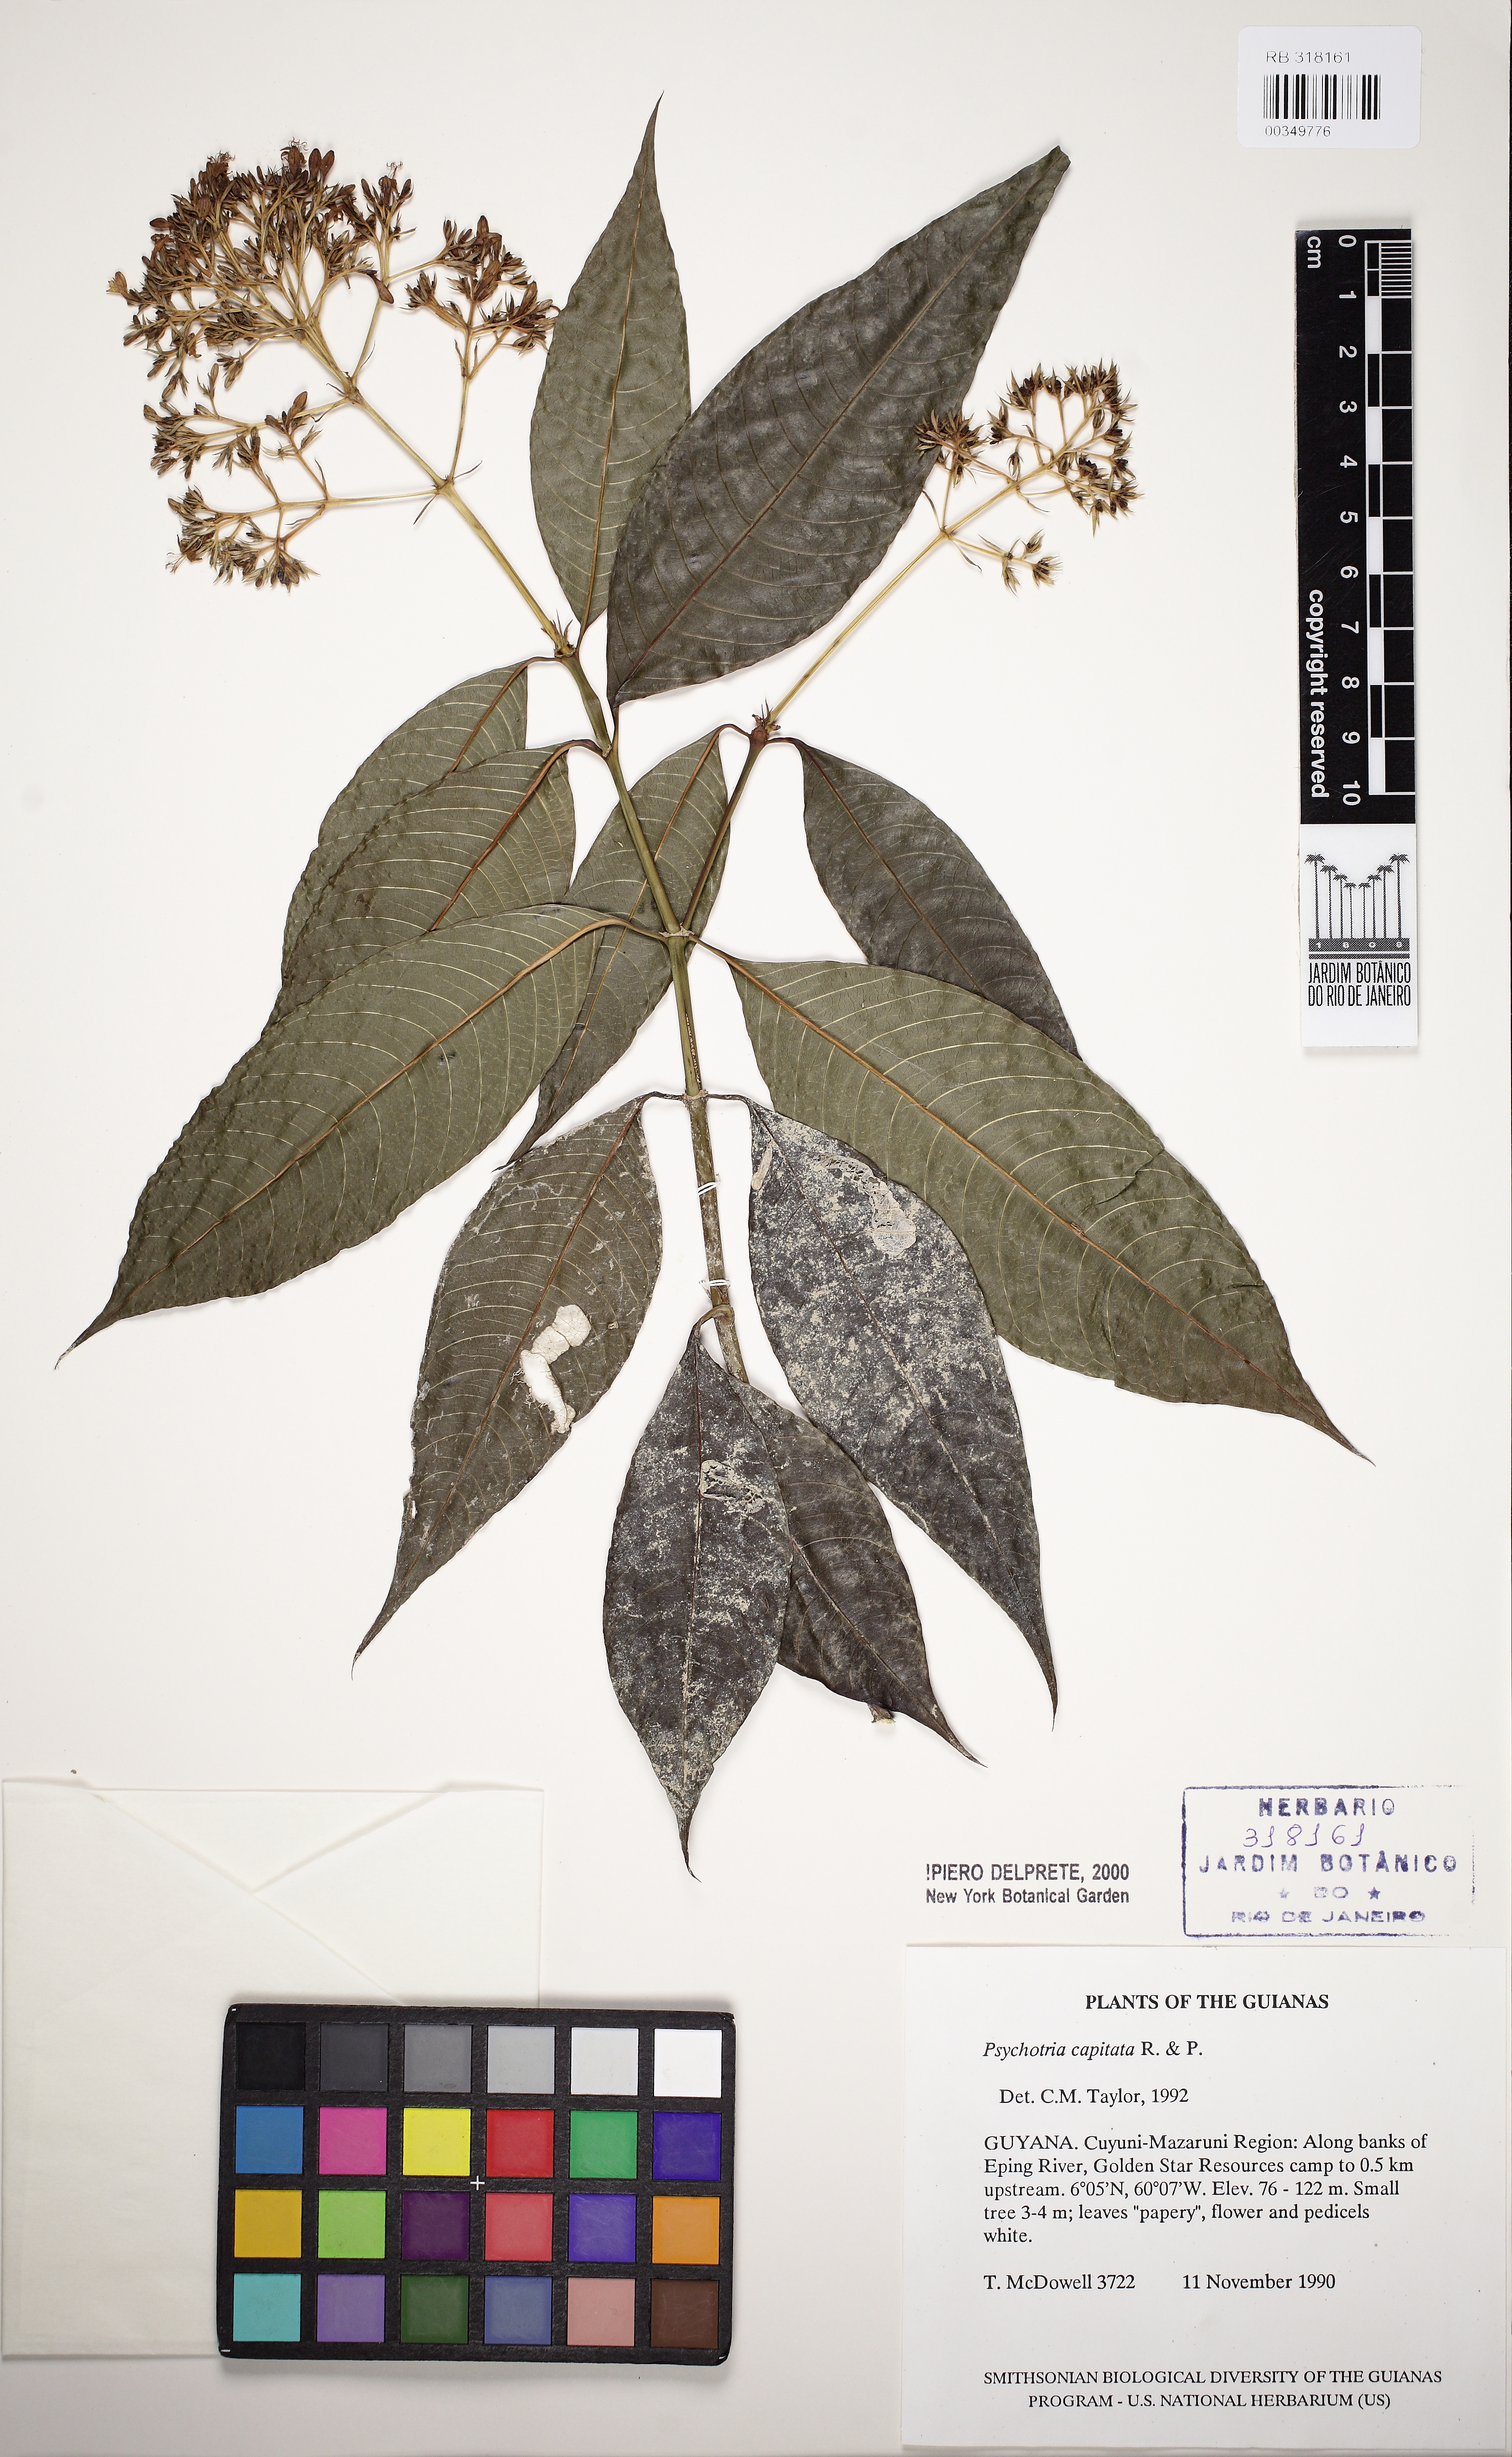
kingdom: Plantae
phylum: Tracheophyta
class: Magnoliopsida
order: Gentianales
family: Rubiaceae
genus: Palicourea
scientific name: Palicourea violacea
